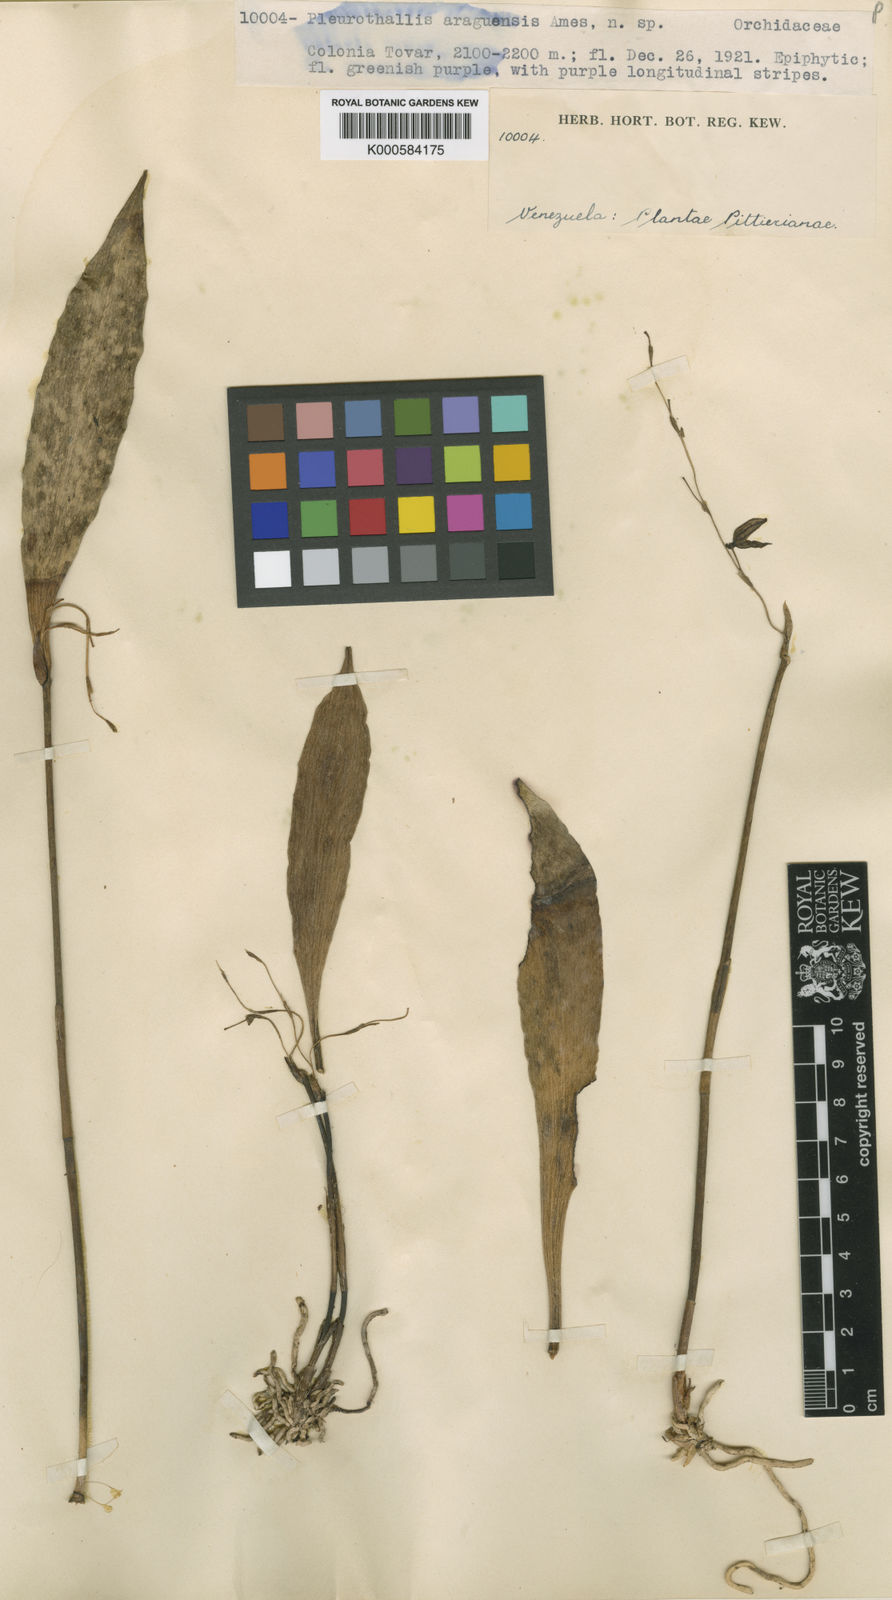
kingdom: Plantae
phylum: Tracheophyta
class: Liliopsida
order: Asparagales
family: Orchidaceae
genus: Pleurothallis
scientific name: Pleurothallis lindenii
